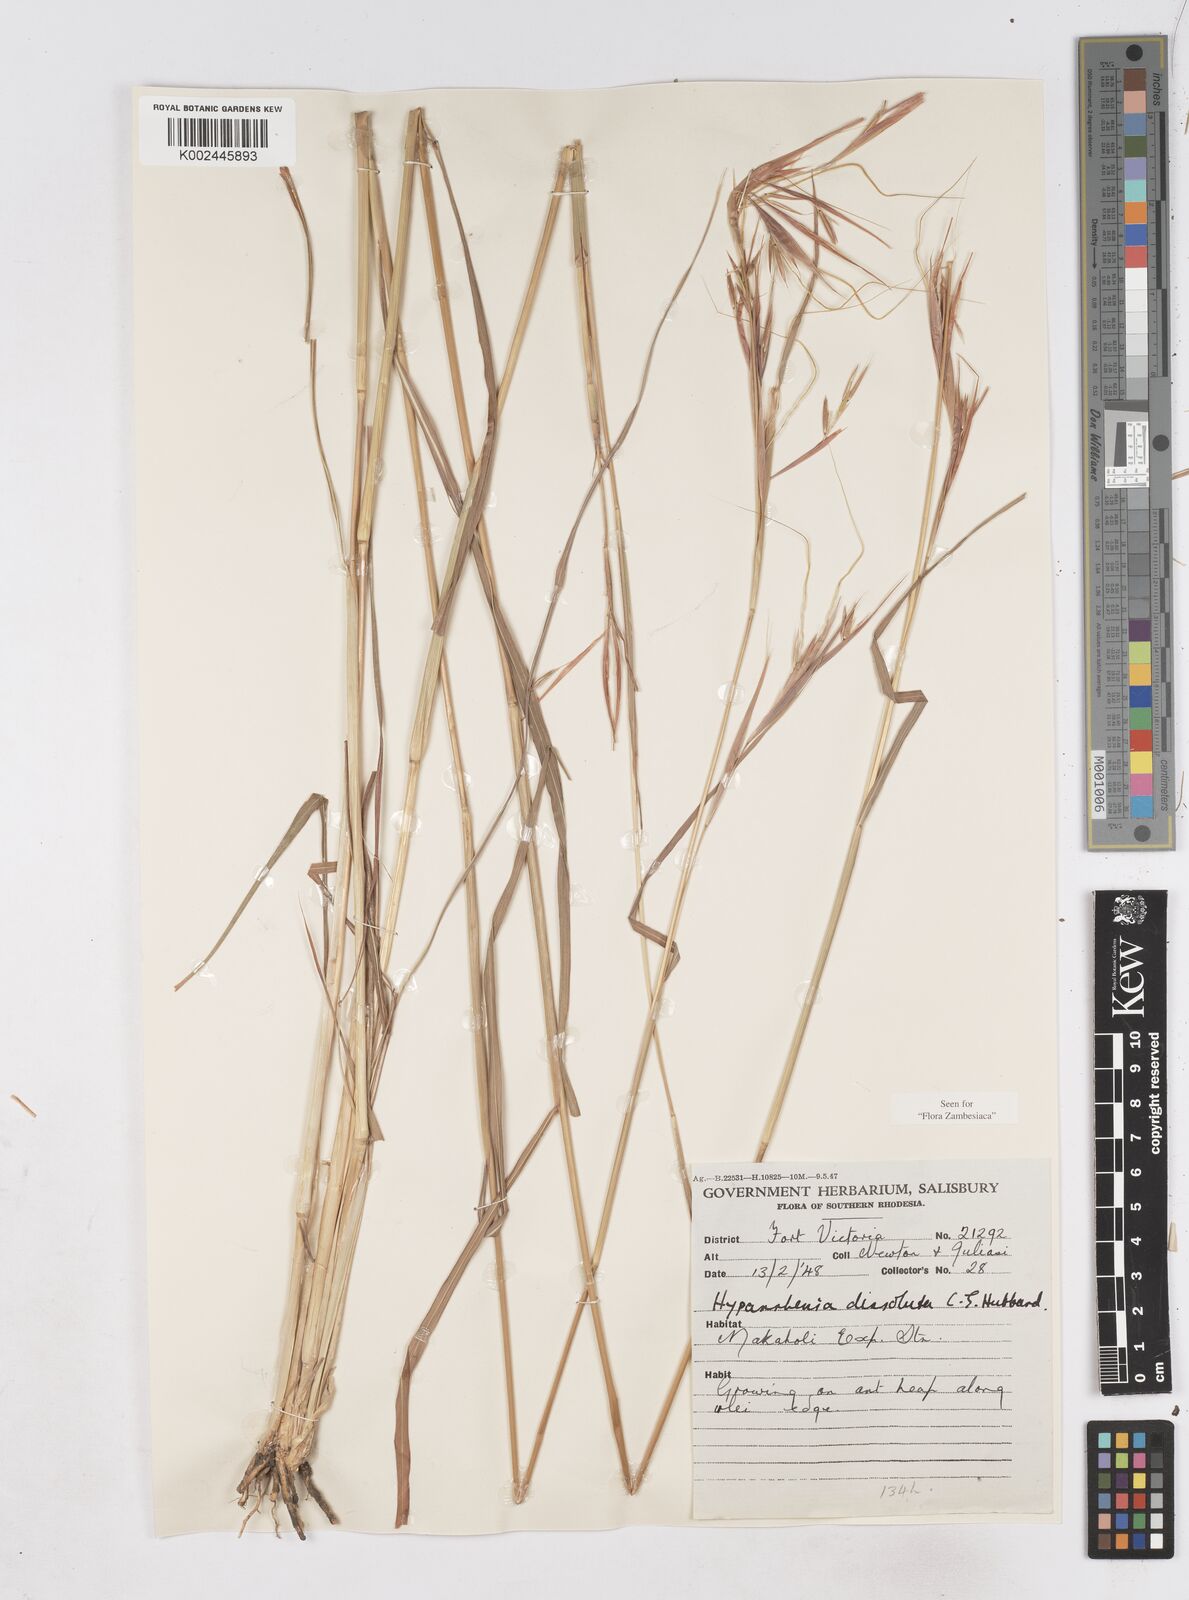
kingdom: Plantae
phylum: Tracheophyta
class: Liliopsida
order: Poales
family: Poaceae
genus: Hyperthelia
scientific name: Hyperthelia dissoluta
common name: Yellow thatching grass
